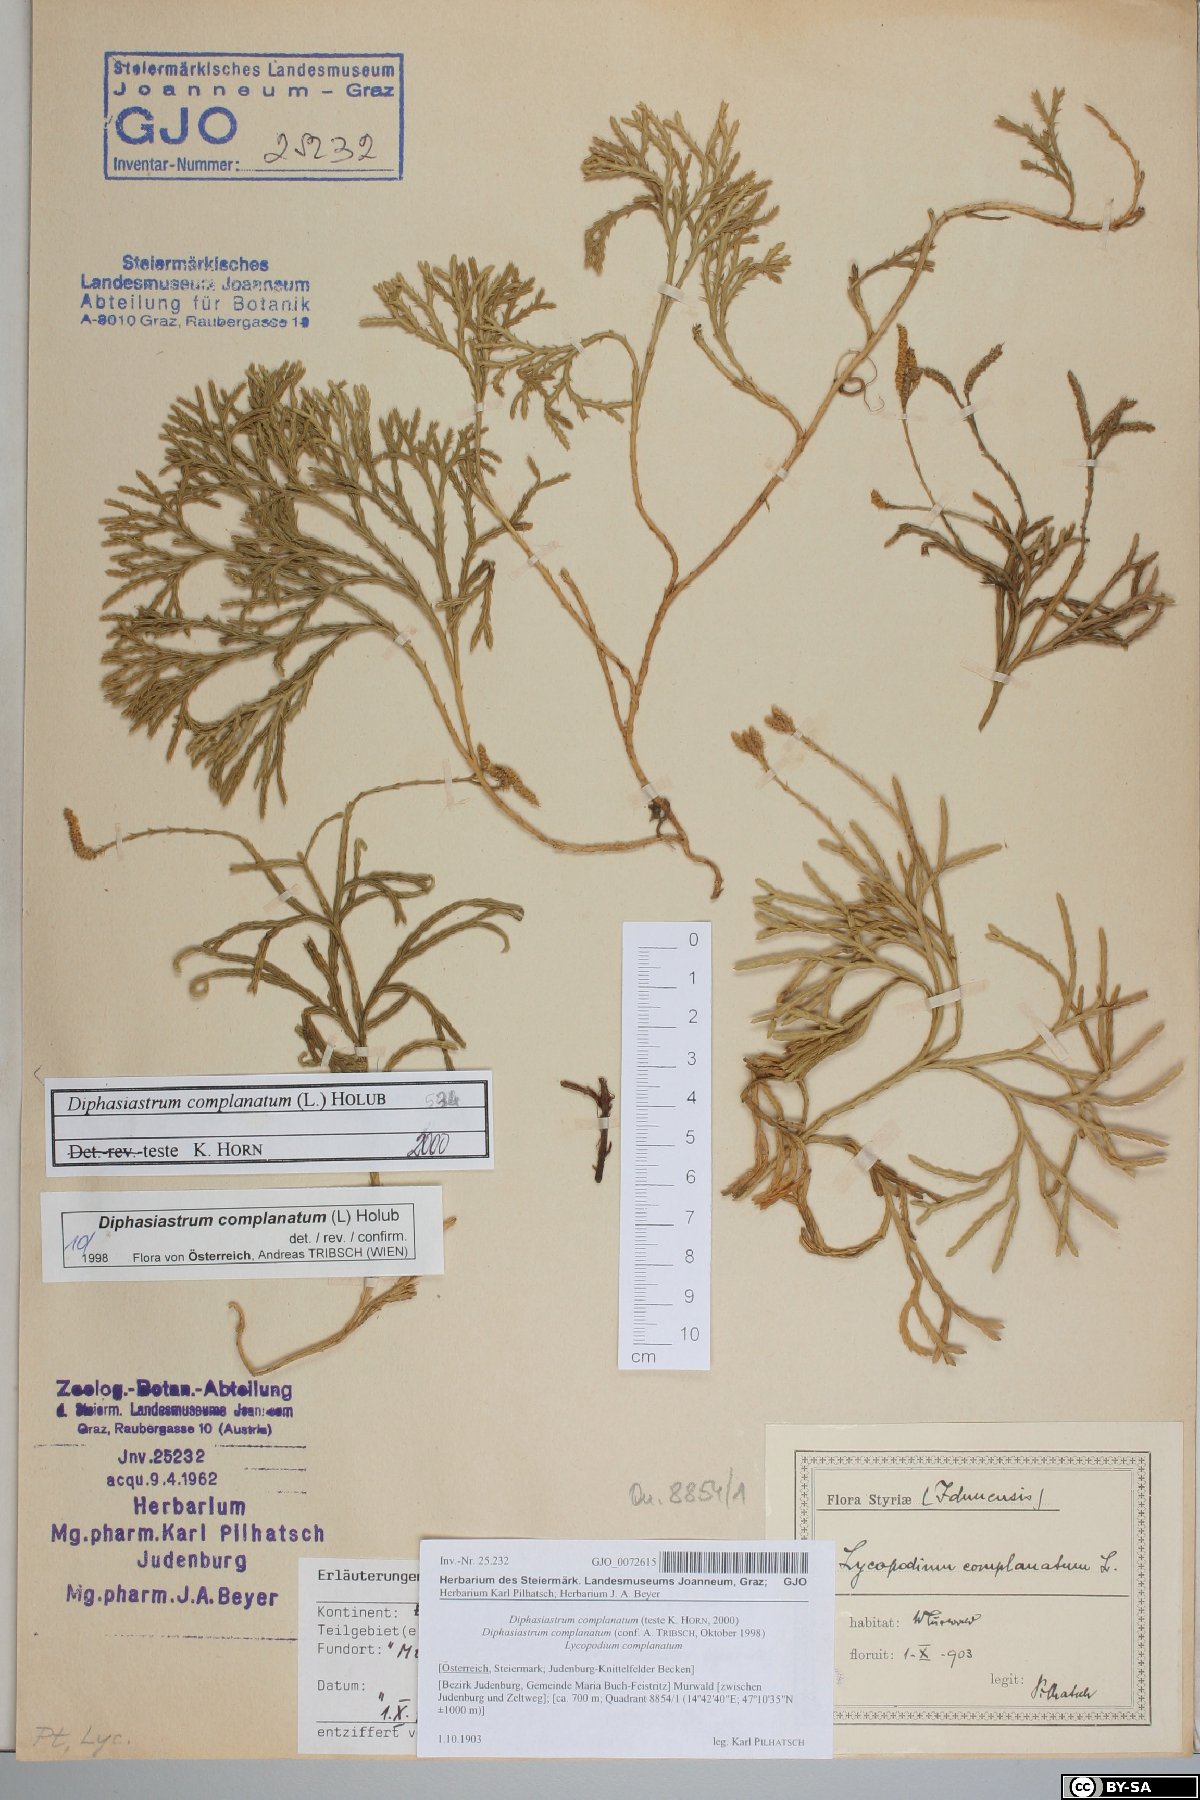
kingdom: Plantae
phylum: Tracheophyta
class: Lycopodiopsida
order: Lycopodiales
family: Lycopodiaceae
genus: Diphasiastrum
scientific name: Diphasiastrum complanatum
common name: Northern running-pine
